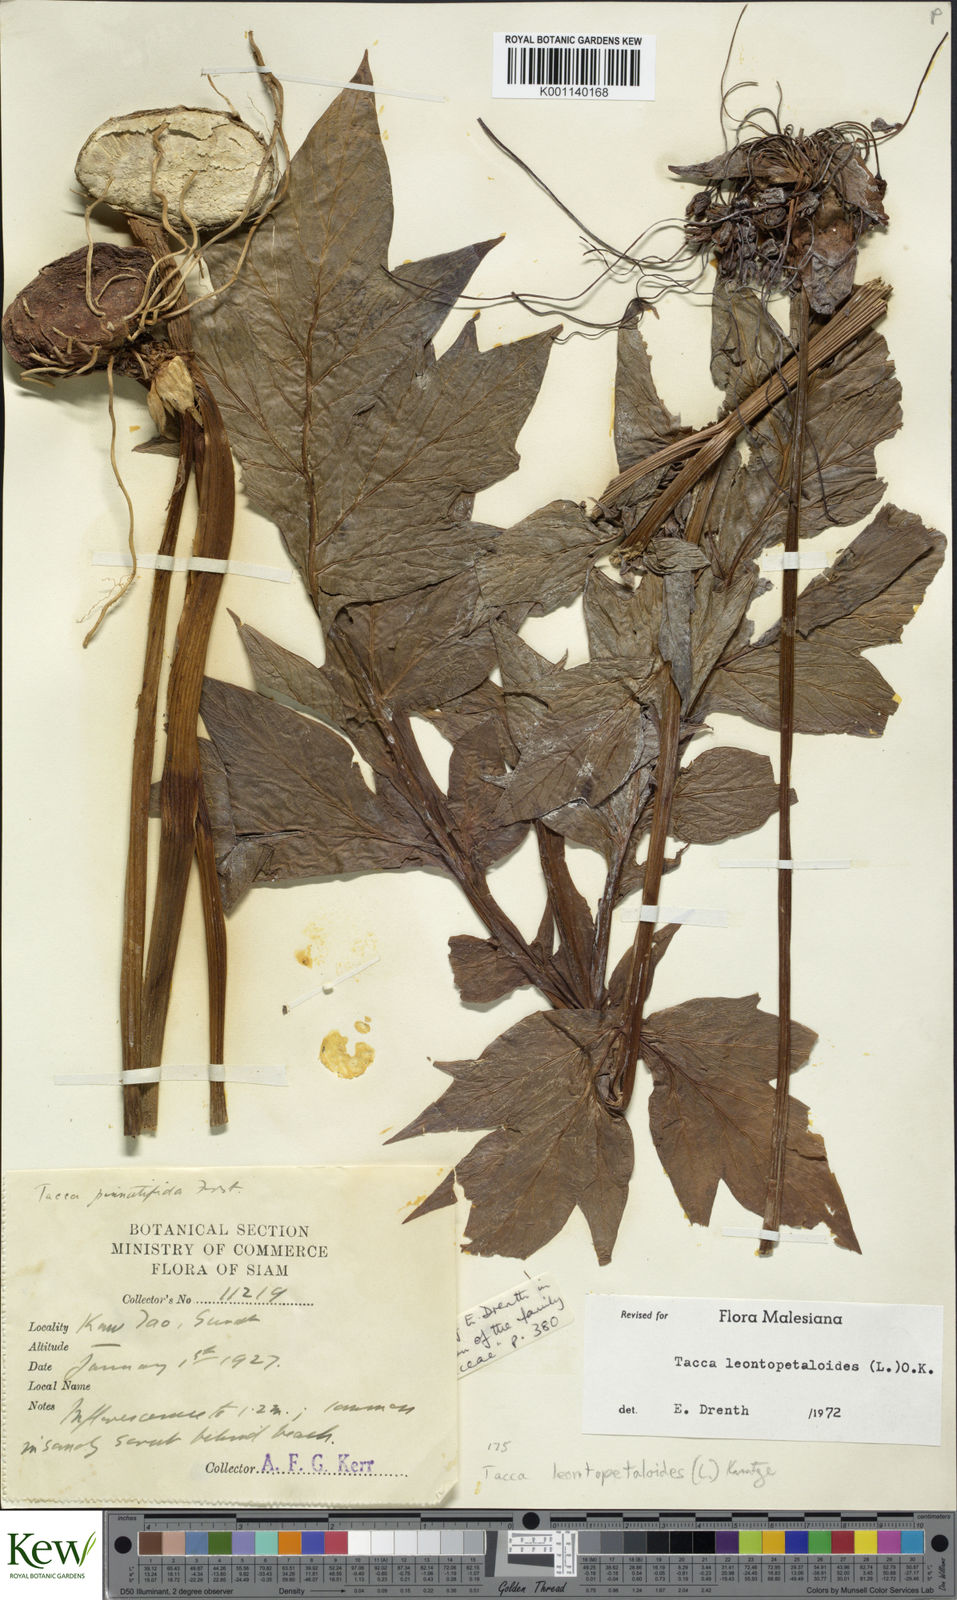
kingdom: Plantae
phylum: Tracheophyta
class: Liliopsida
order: Dioscoreales
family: Dioscoreaceae
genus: Tacca
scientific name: Tacca leontopetaloides
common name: Arrowroot
